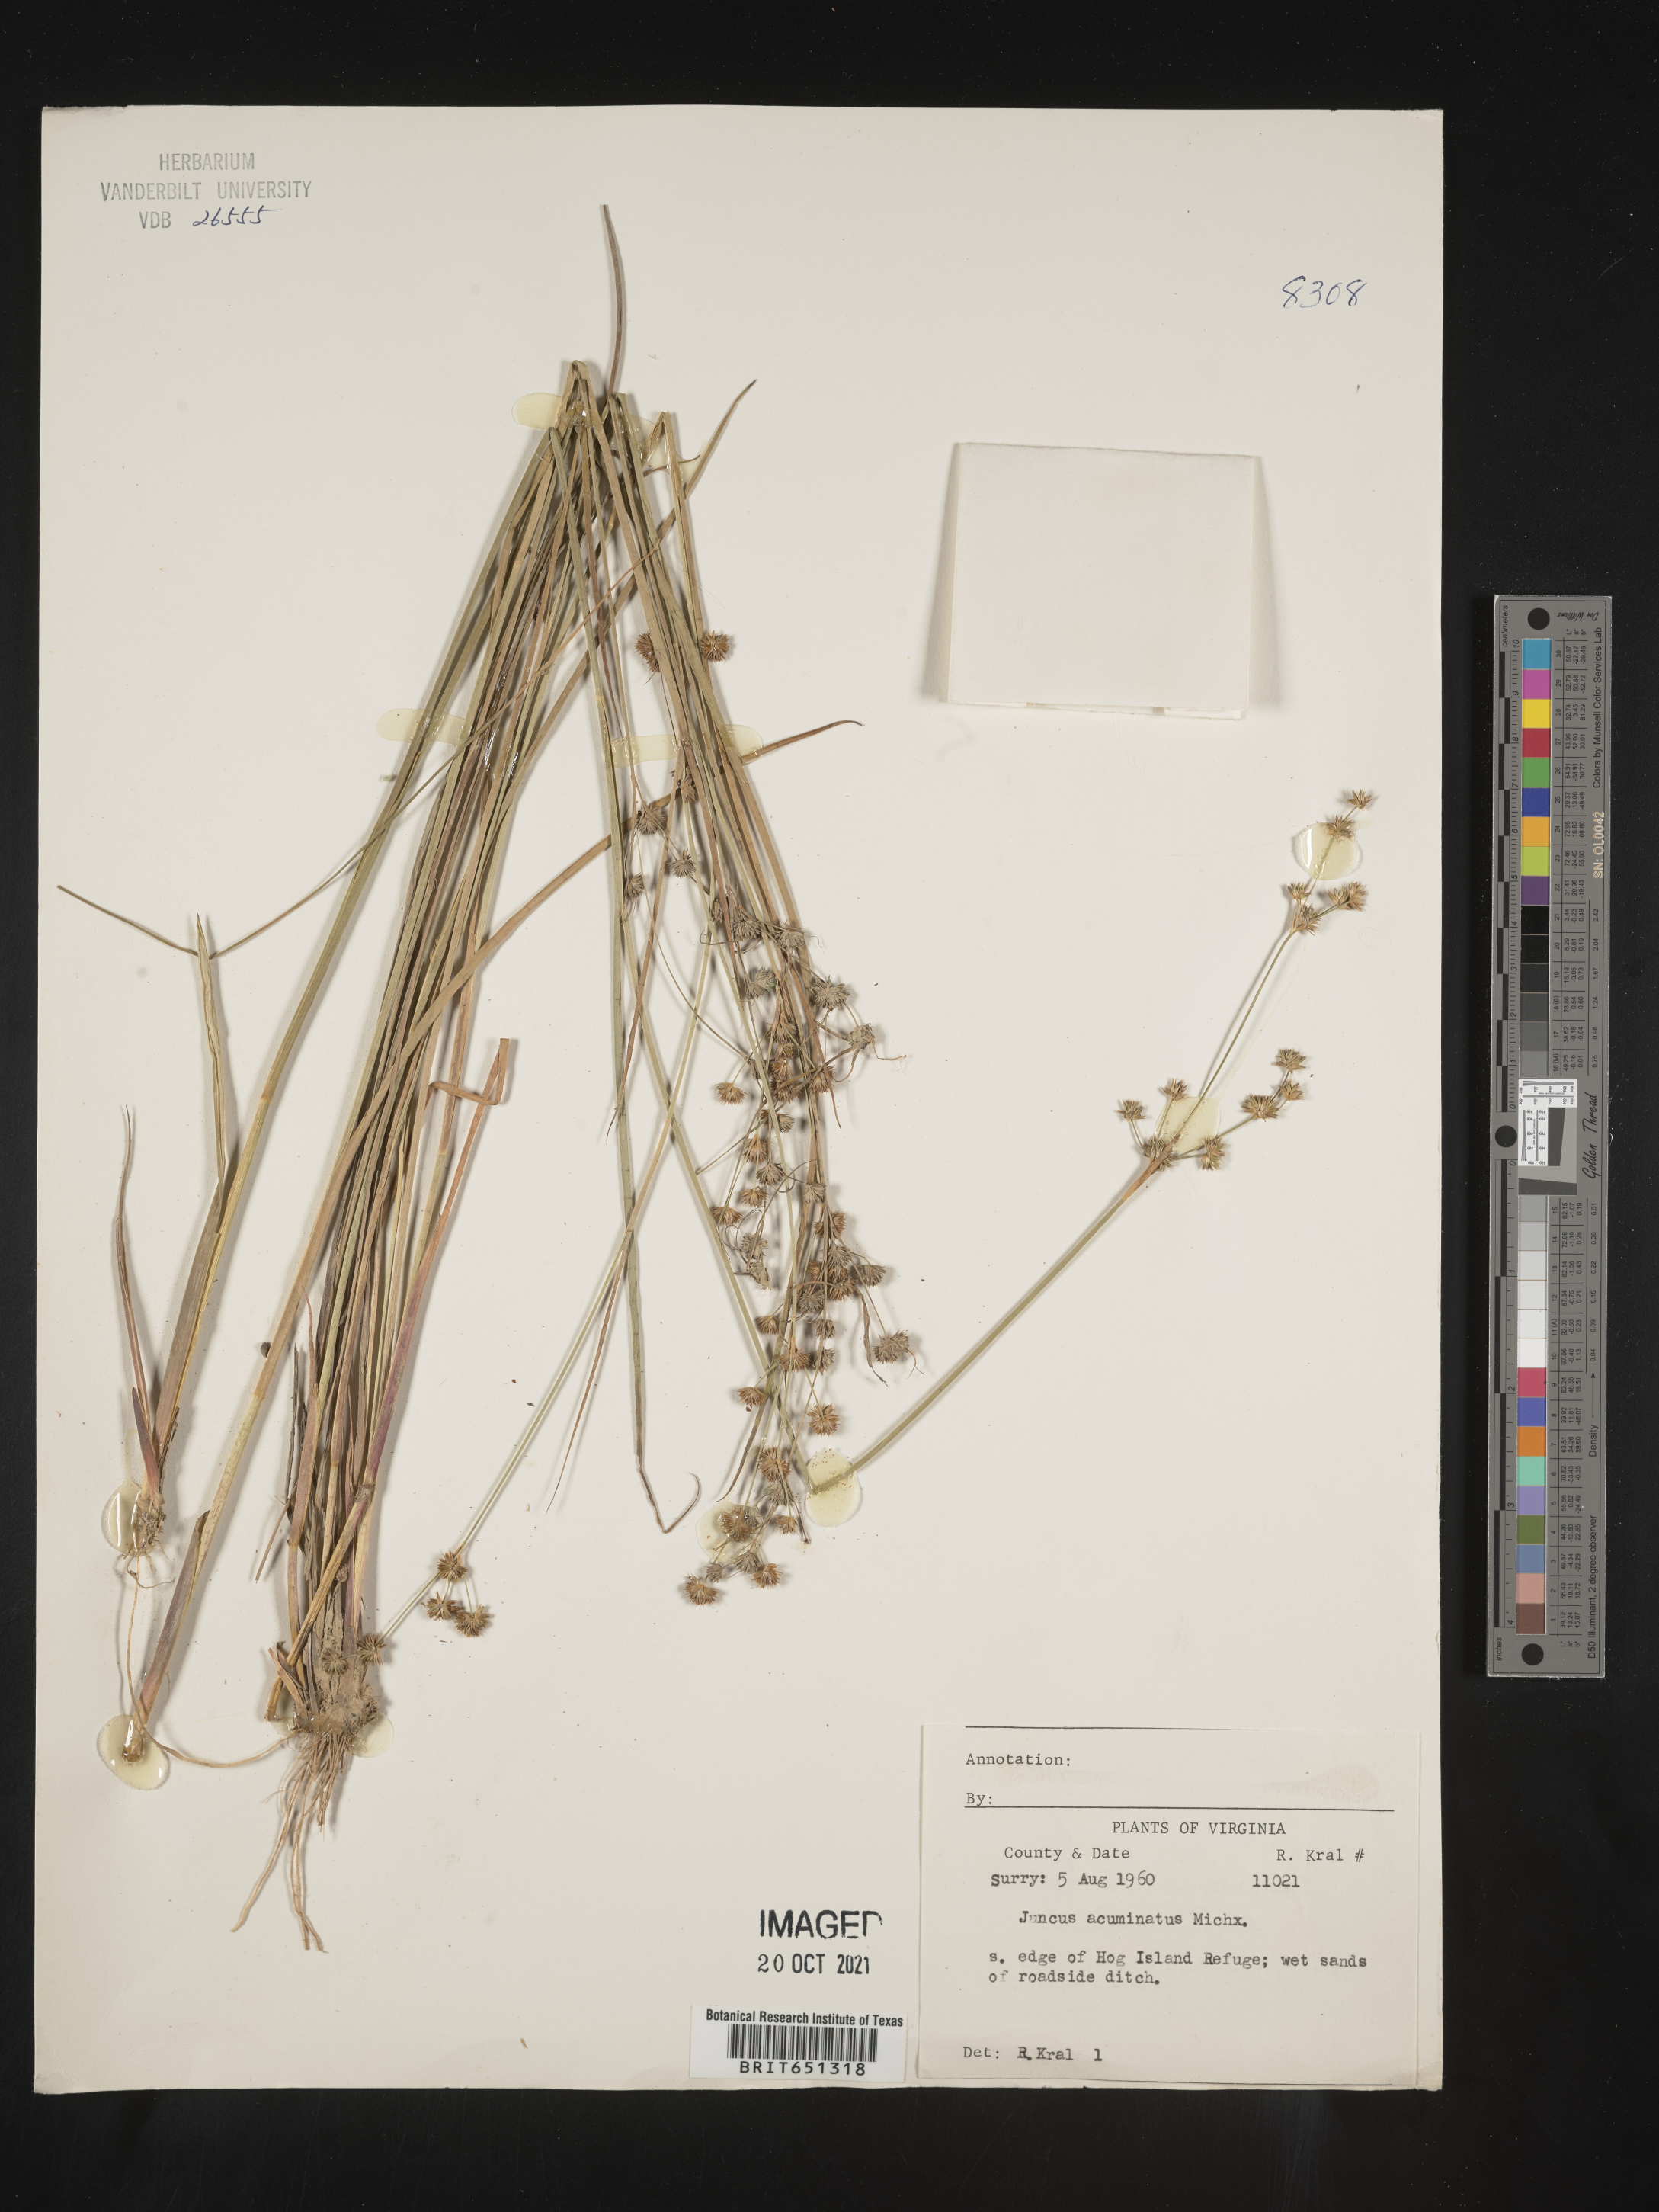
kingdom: Plantae
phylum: Tracheophyta
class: Liliopsida
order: Poales
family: Juncaceae
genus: Juncus
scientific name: Juncus acuminatus
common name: Knotty-leaved rush
